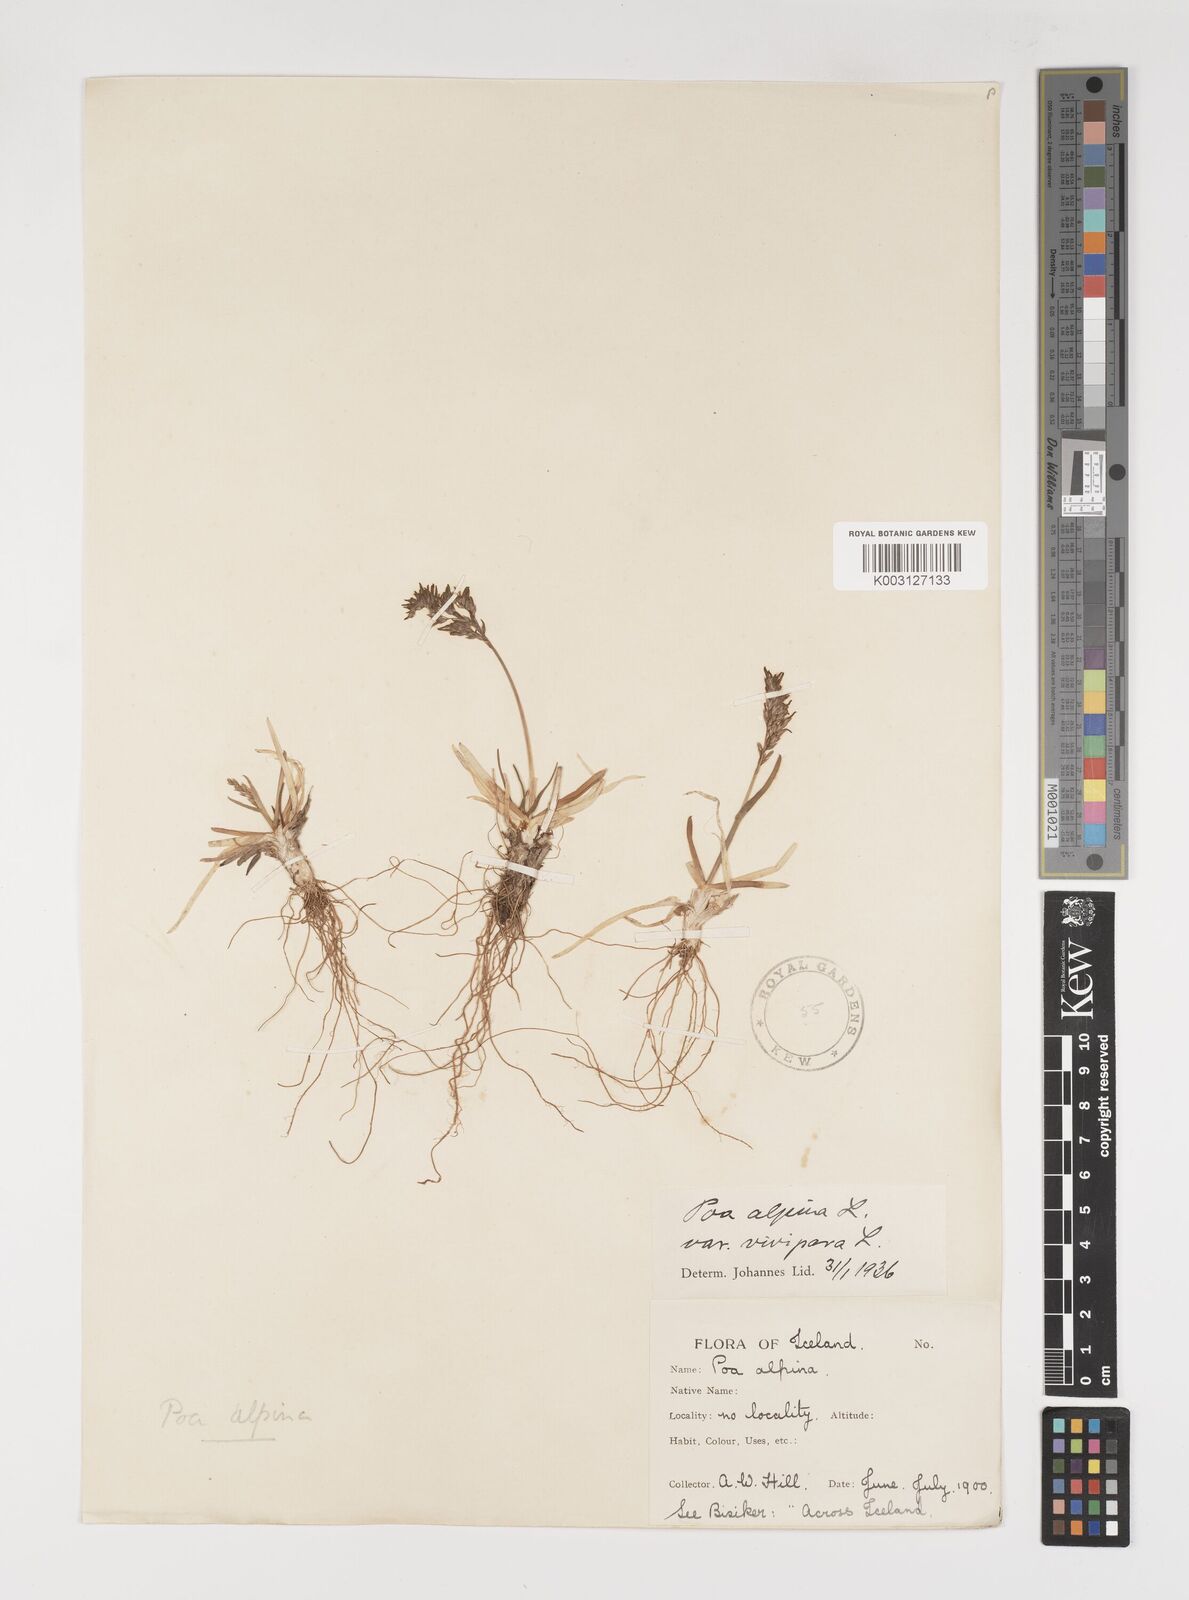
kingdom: Plantae
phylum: Tracheophyta
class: Liliopsida
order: Poales
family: Poaceae
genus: Poa
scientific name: Poa alpina
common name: Alpine bluegrass
